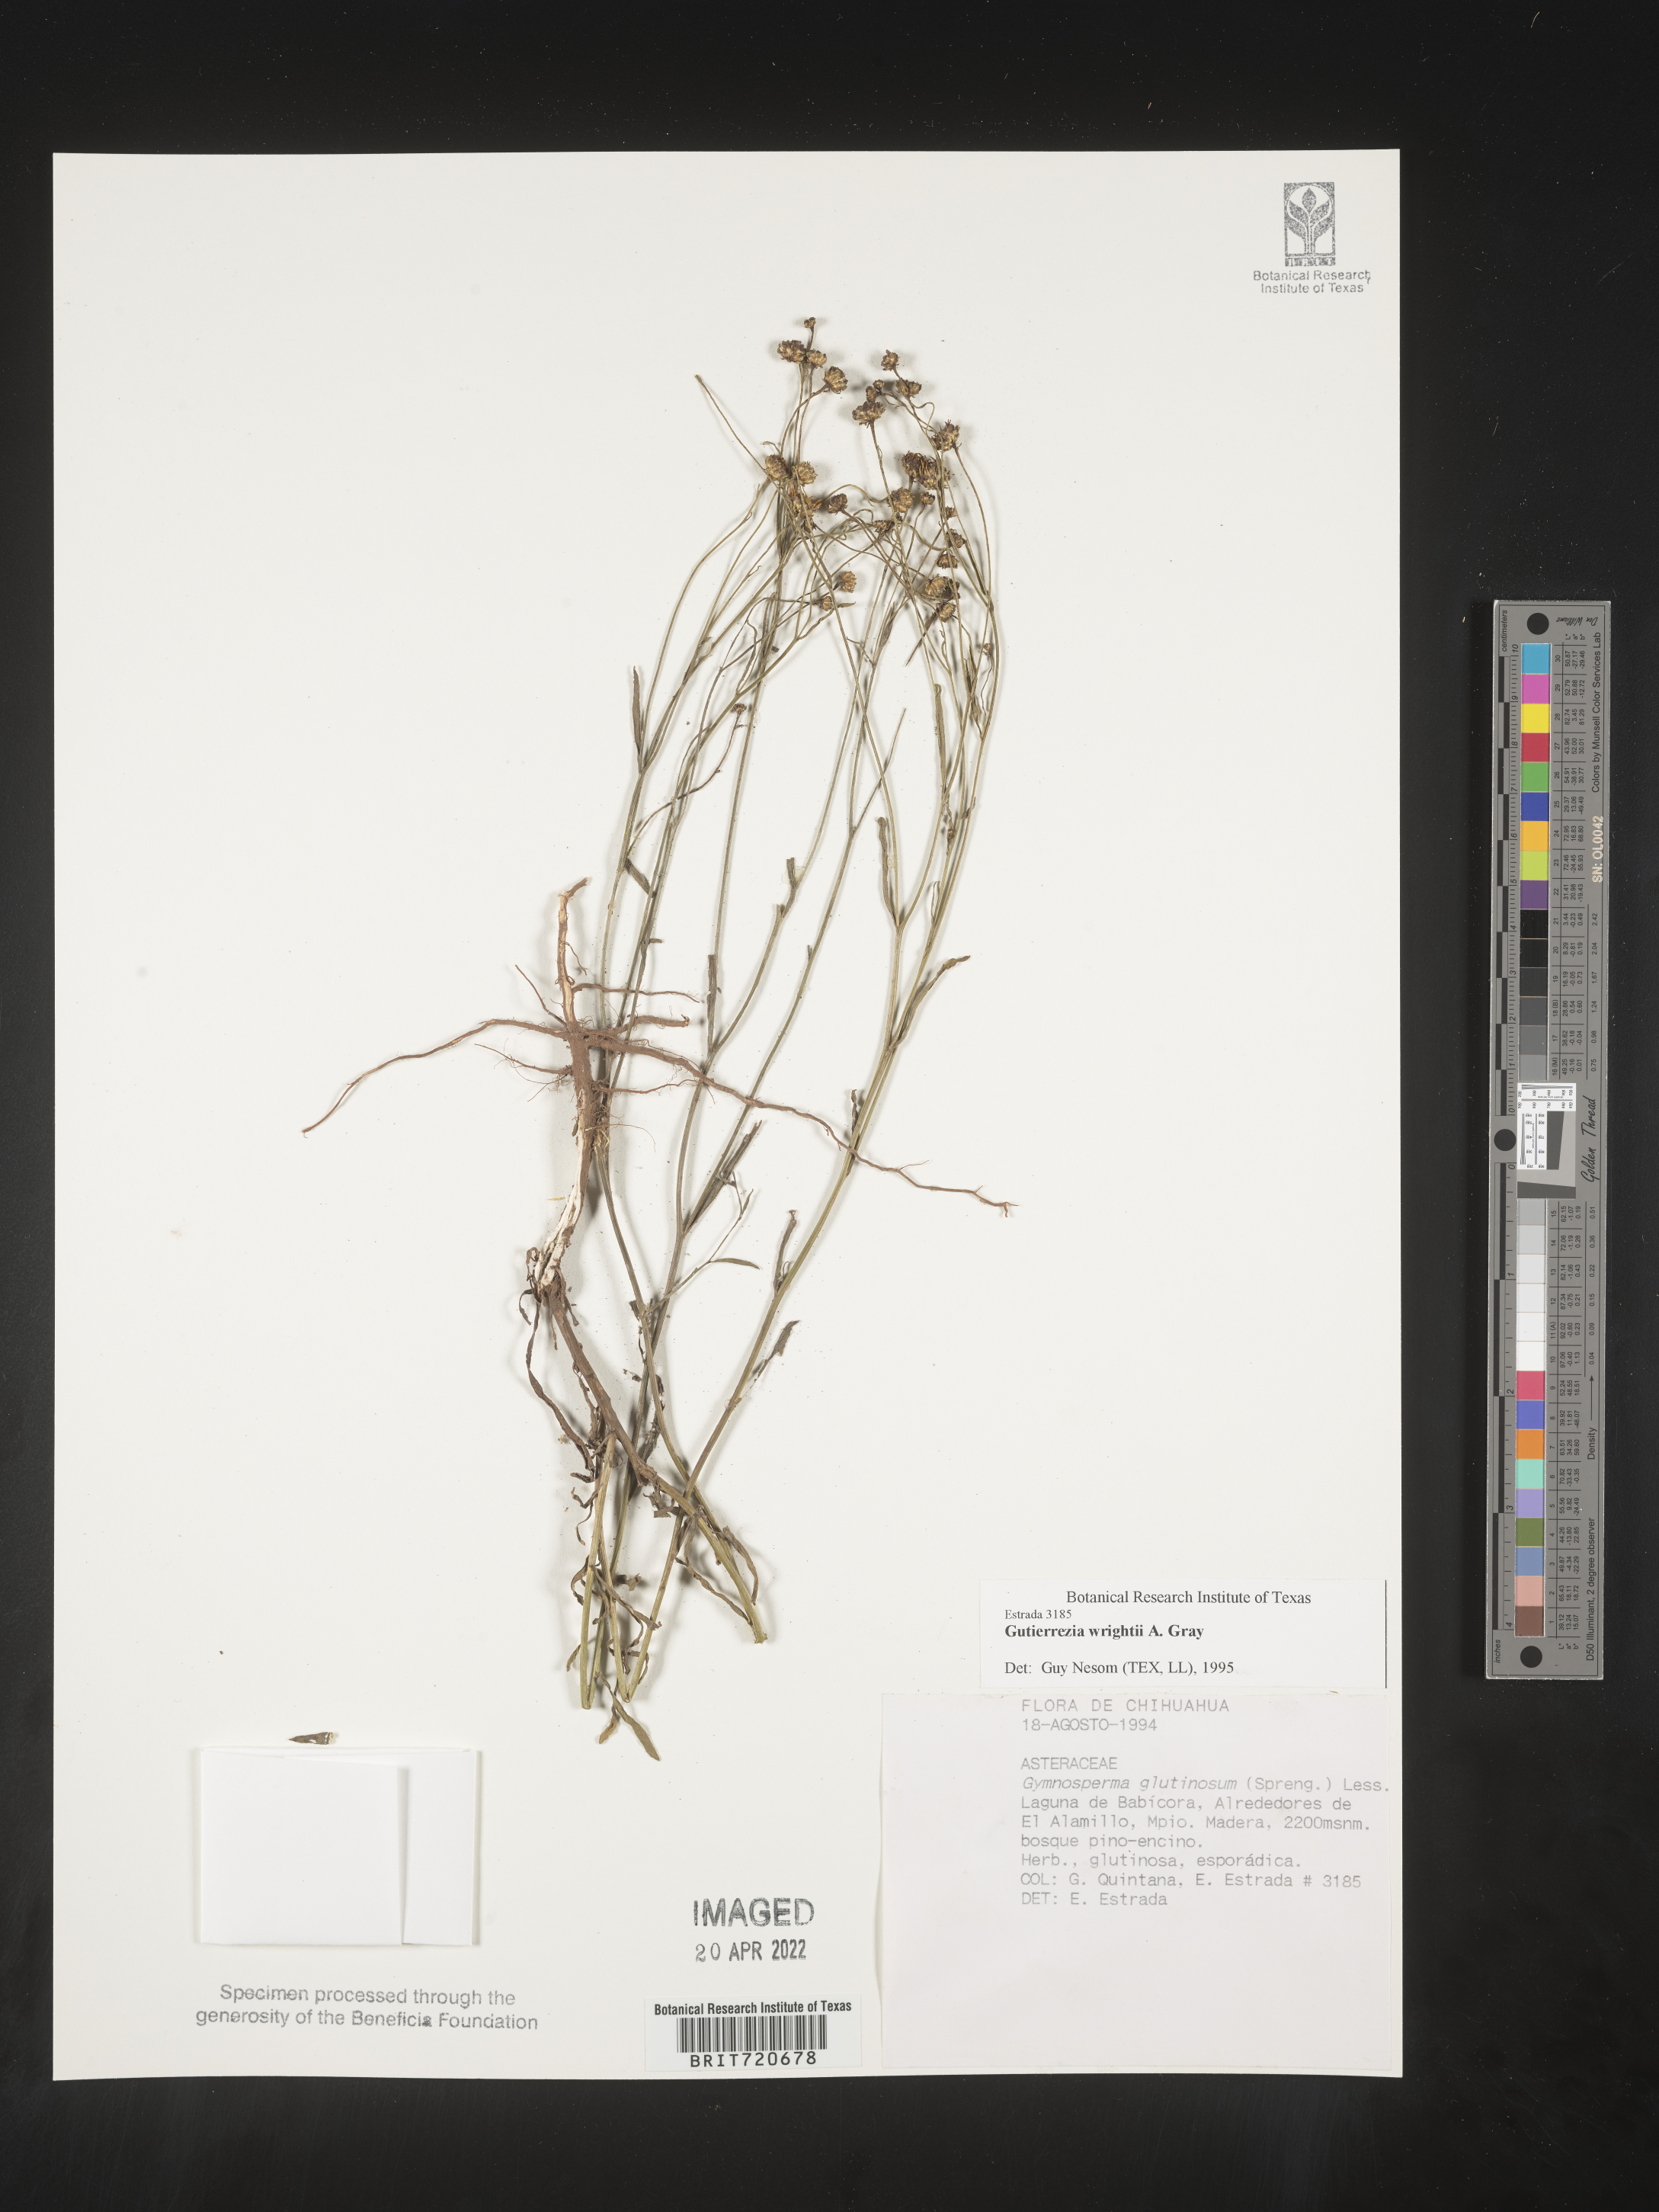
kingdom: Plantae
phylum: Tracheophyta
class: Magnoliopsida
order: Asterales
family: Asteraceae
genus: Gutierrezia
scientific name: Gutierrezia
